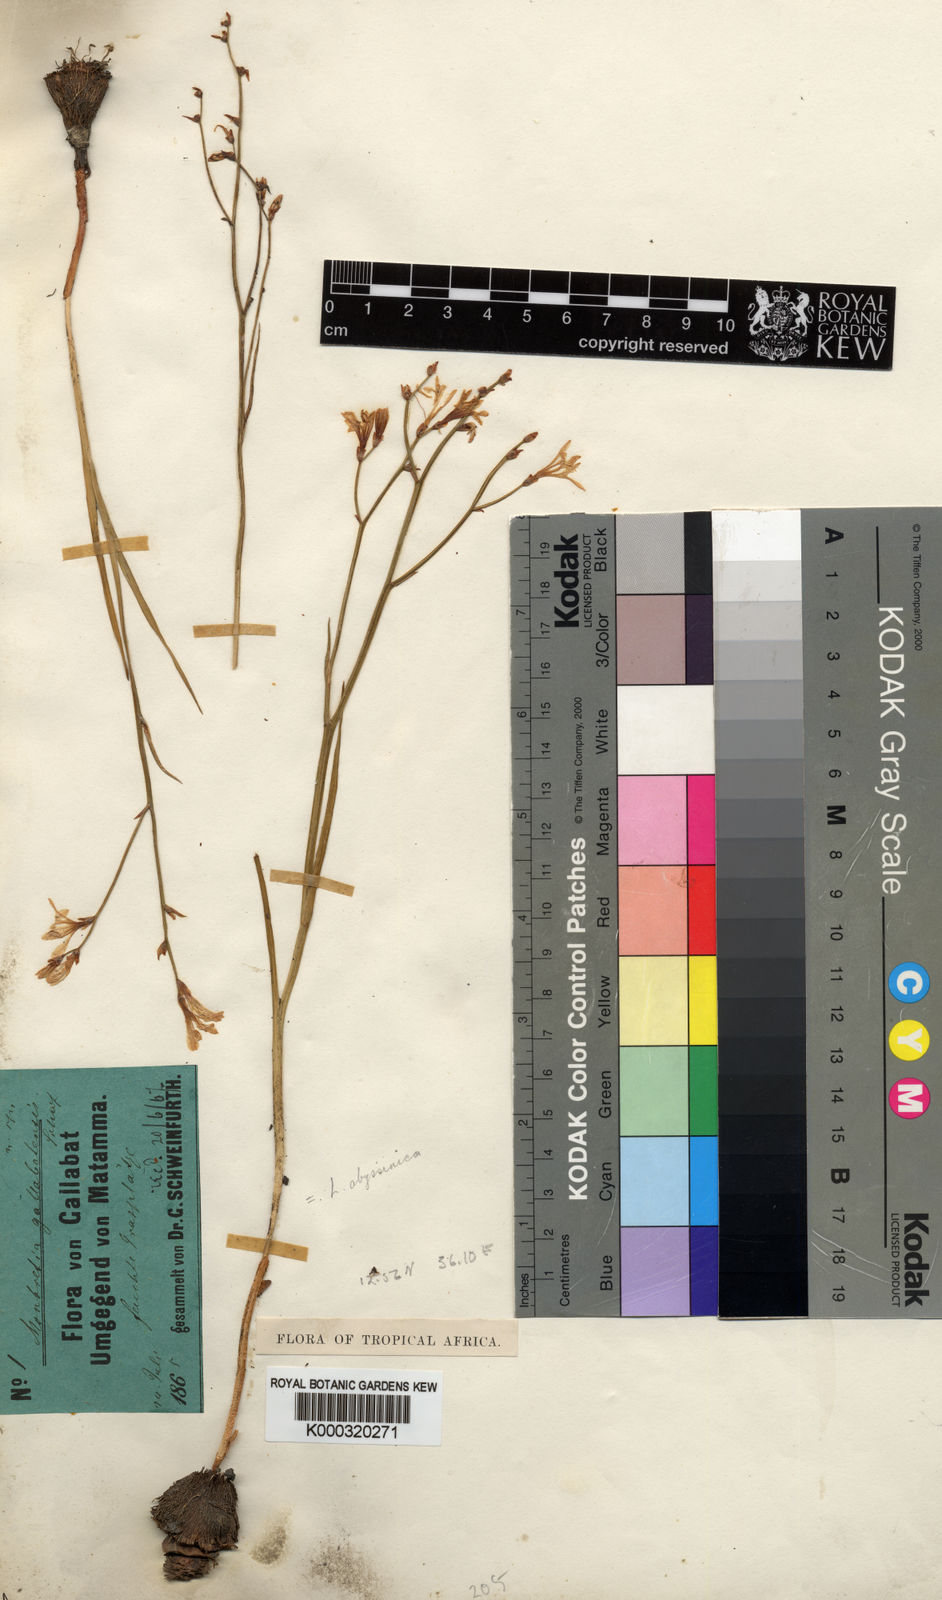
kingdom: Plantae
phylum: Tracheophyta
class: Liliopsida
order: Asparagales
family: Iridaceae
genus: Afrosolen
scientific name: Afrosolen abyssinicus
